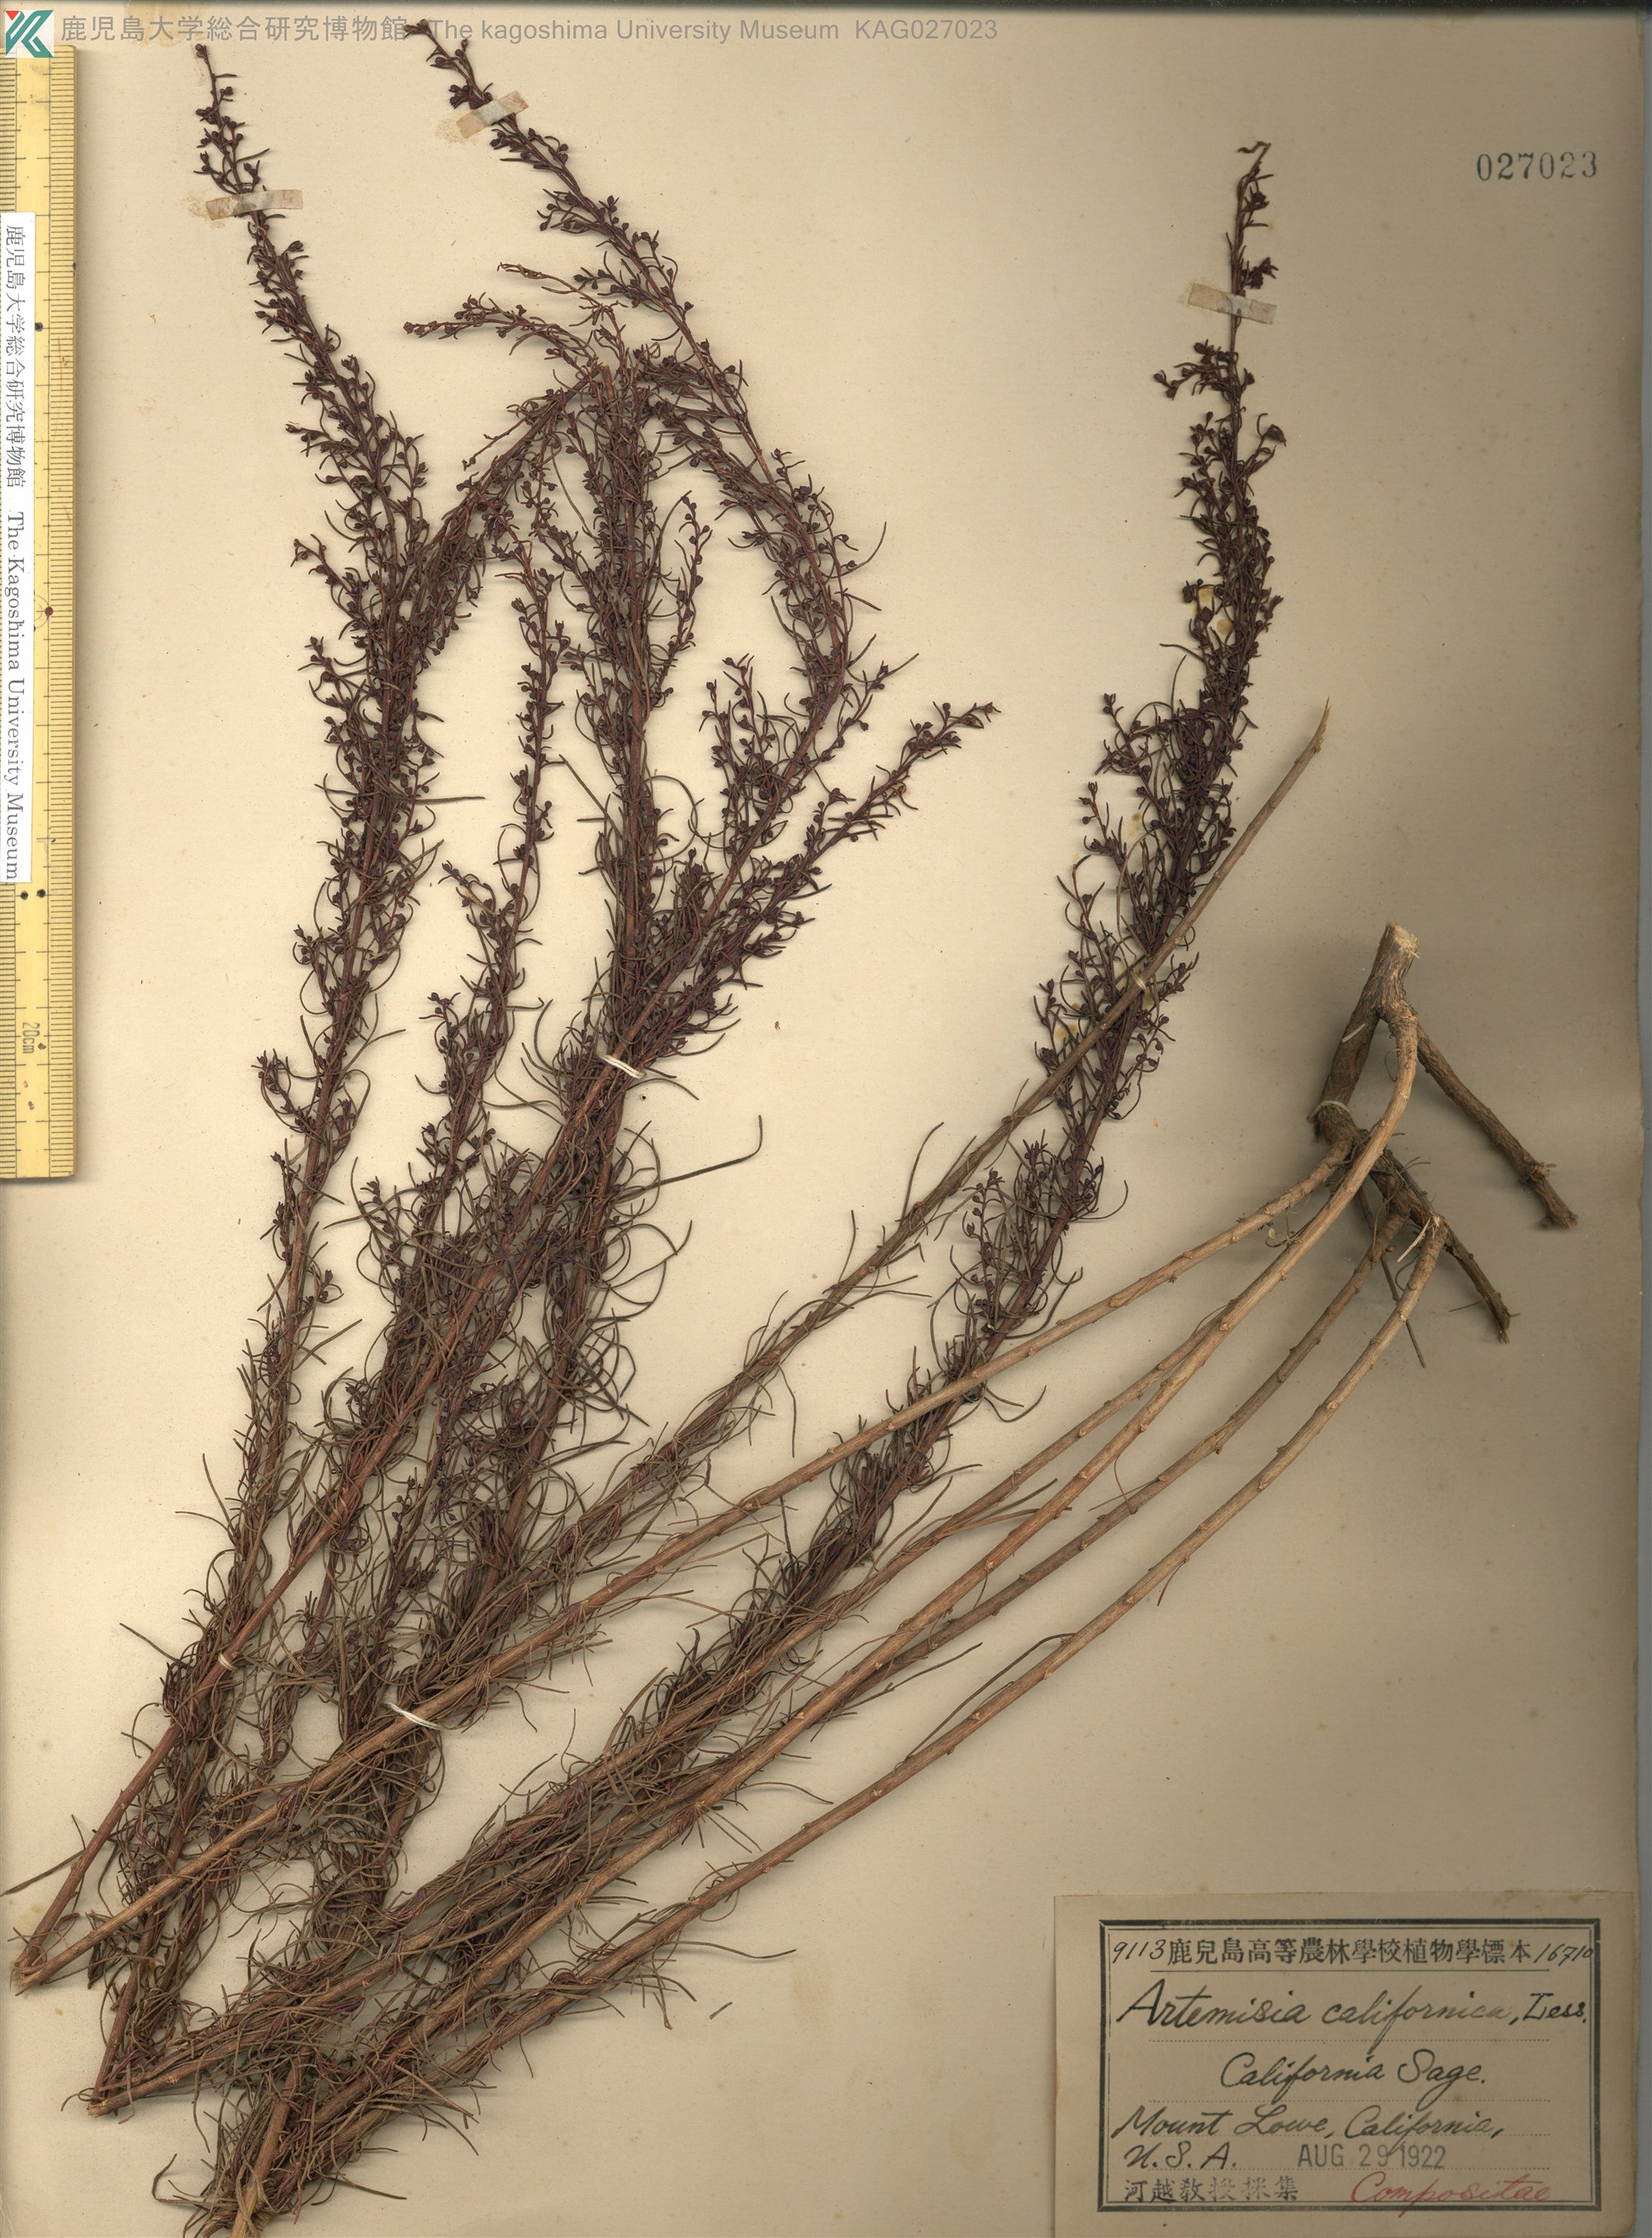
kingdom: Plantae
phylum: Tracheophyta
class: Magnoliopsida
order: Asterales
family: Asteraceae
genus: Artemisia
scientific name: Artemisia californica
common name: California sagebrush
